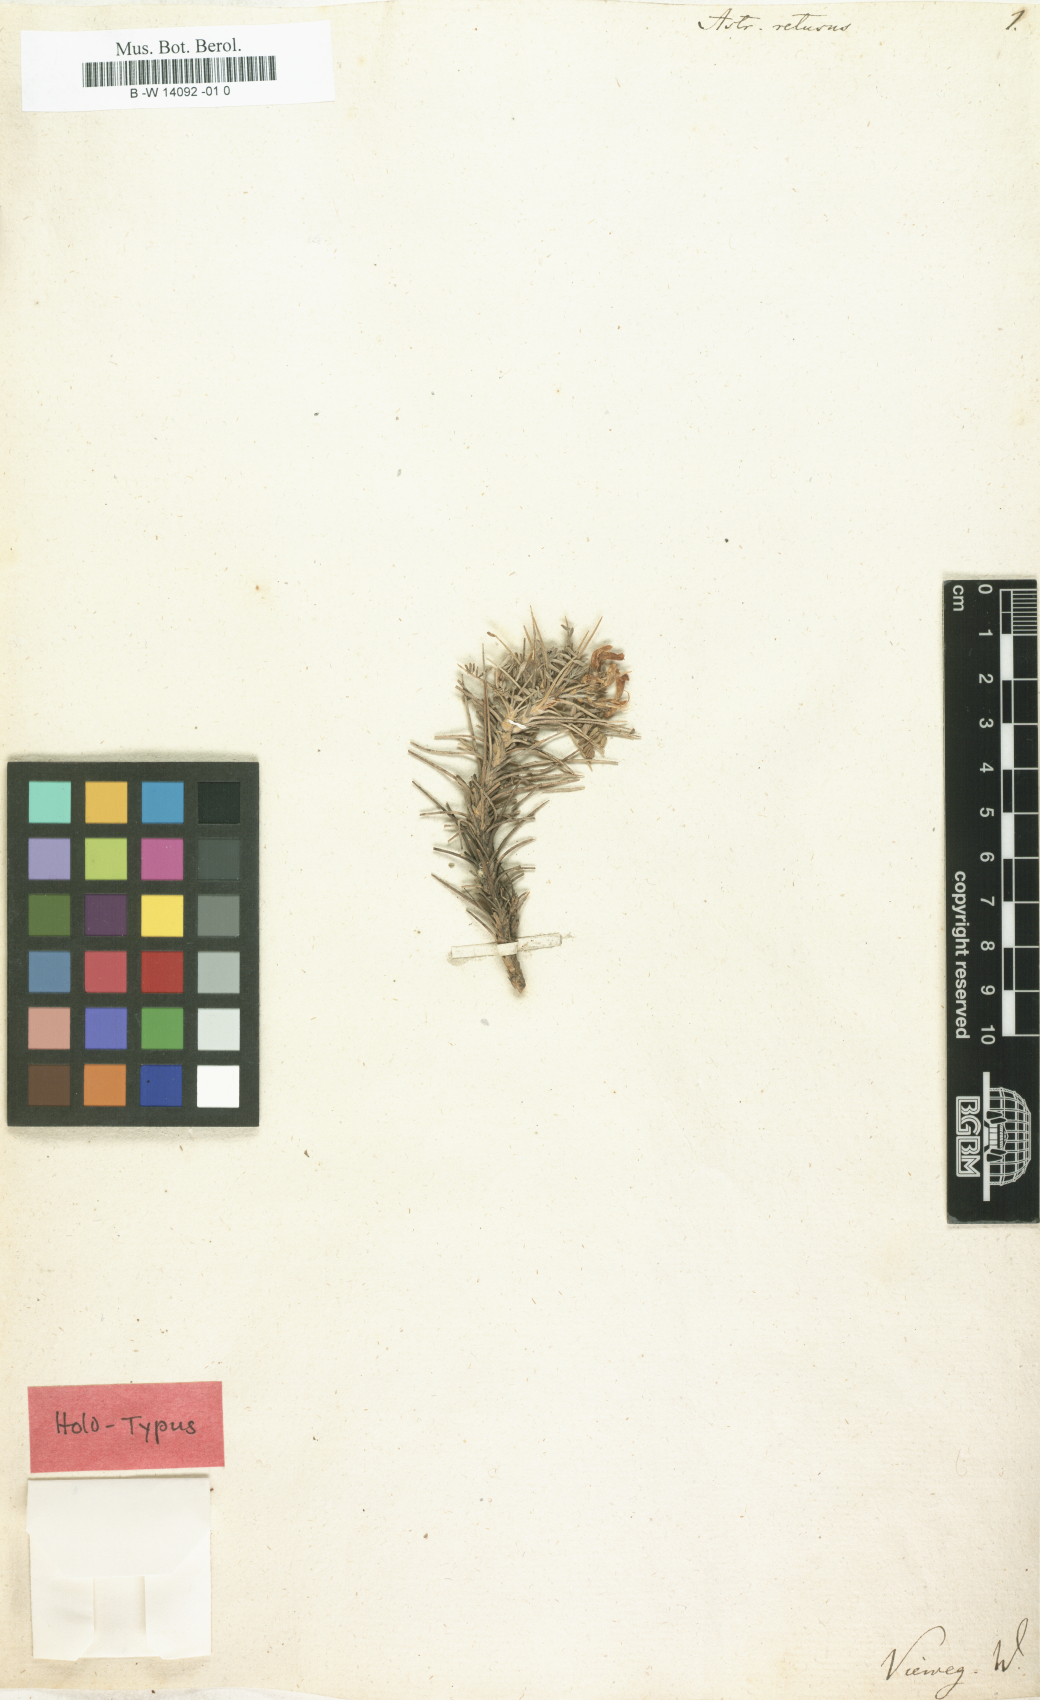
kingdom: Plantae
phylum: Tracheophyta
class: Magnoliopsida
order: Fabales
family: Fabaceae
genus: Astragalus
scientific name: Astragalus
